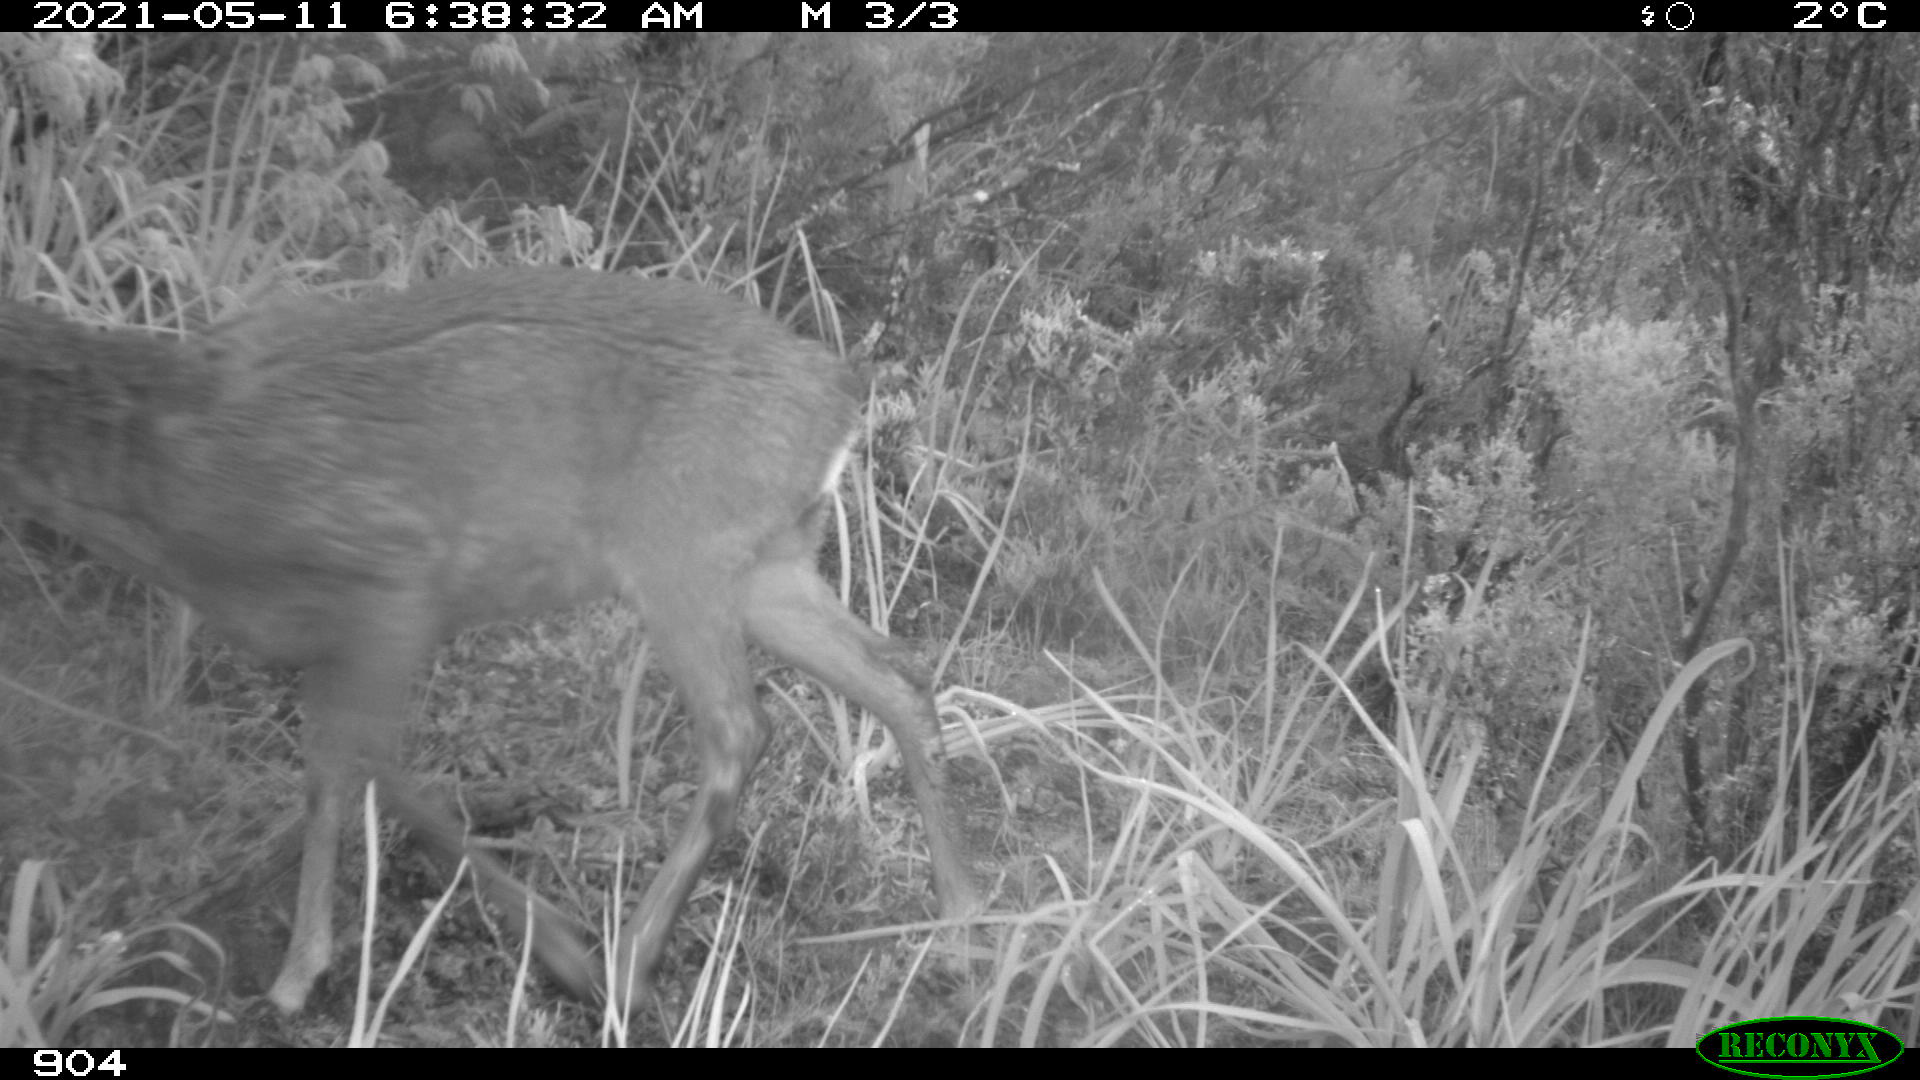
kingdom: Animalia
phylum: Chordata
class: Mammalia
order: Artiodactyla
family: Cervidae
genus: Capreolus
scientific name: Capreolus capreolus
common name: Western roe deer
